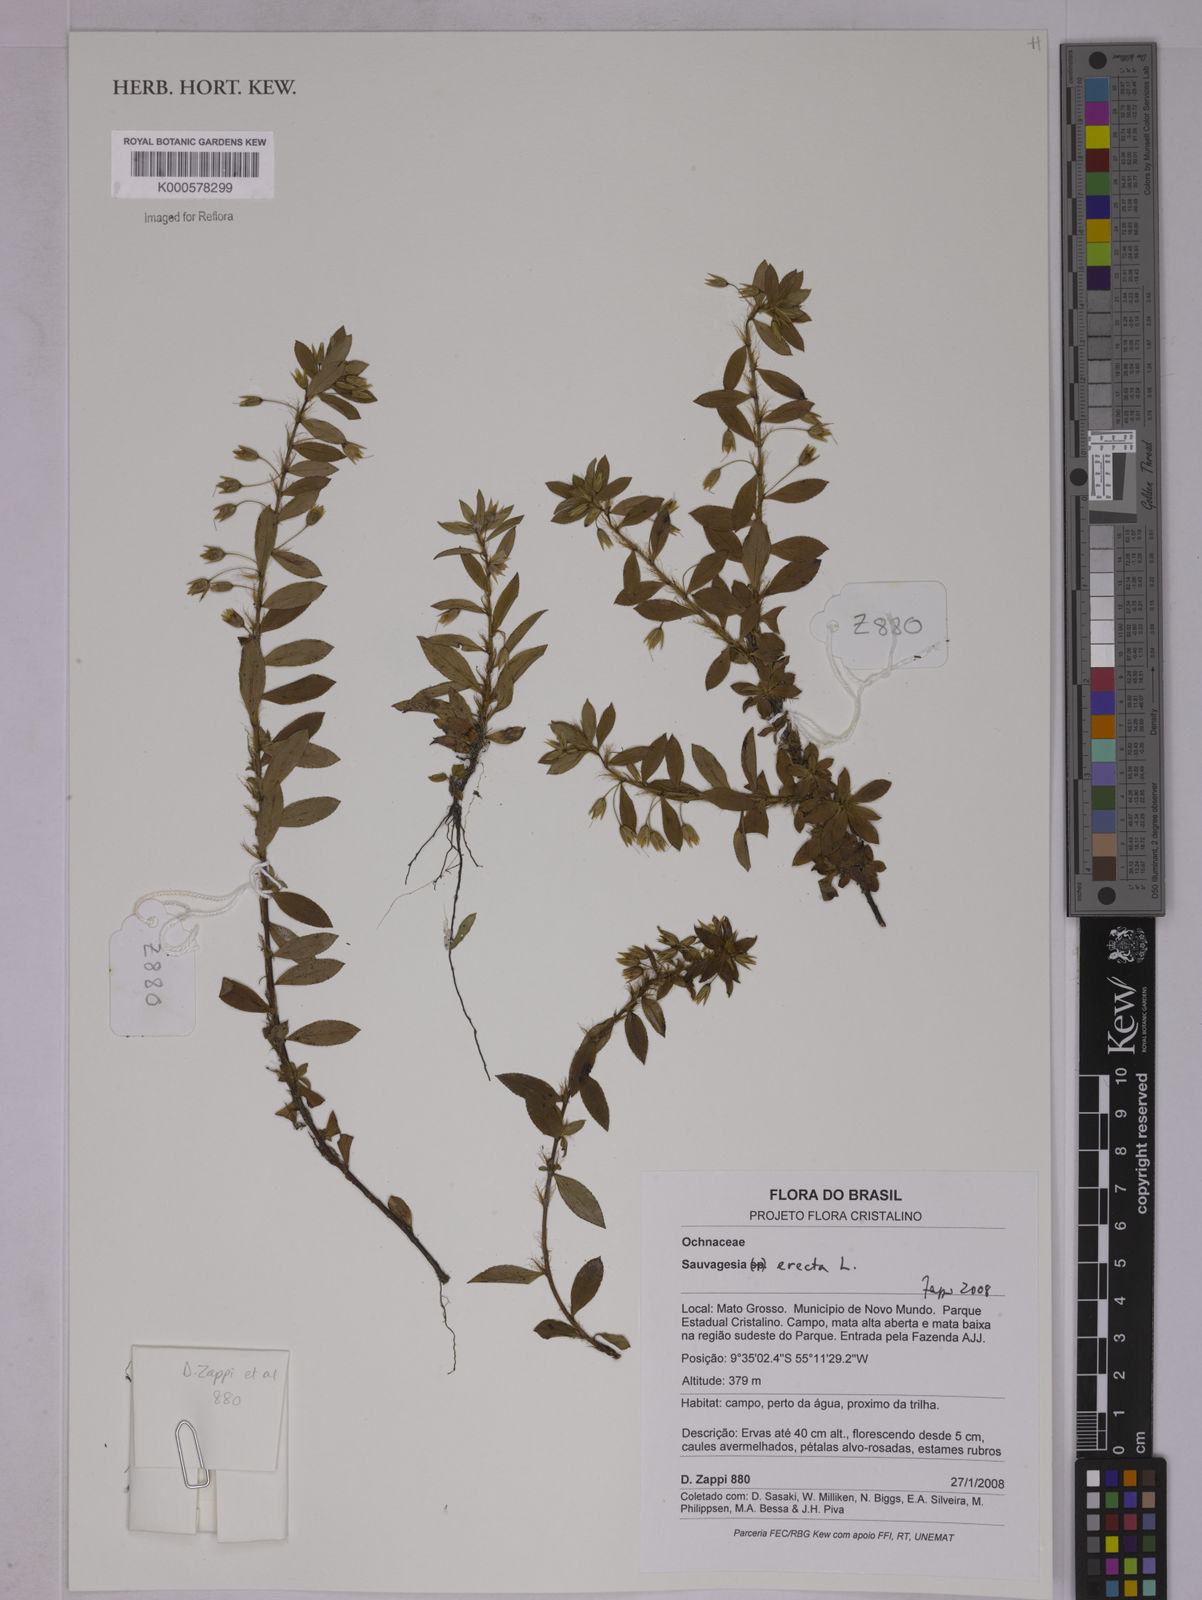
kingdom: Plantae
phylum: Tracheophyta
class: Magnoliopsida
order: Malpighiales
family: Ochnaceae
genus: Sauvagesia
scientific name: Sauvagesia erecta
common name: Creole tea
